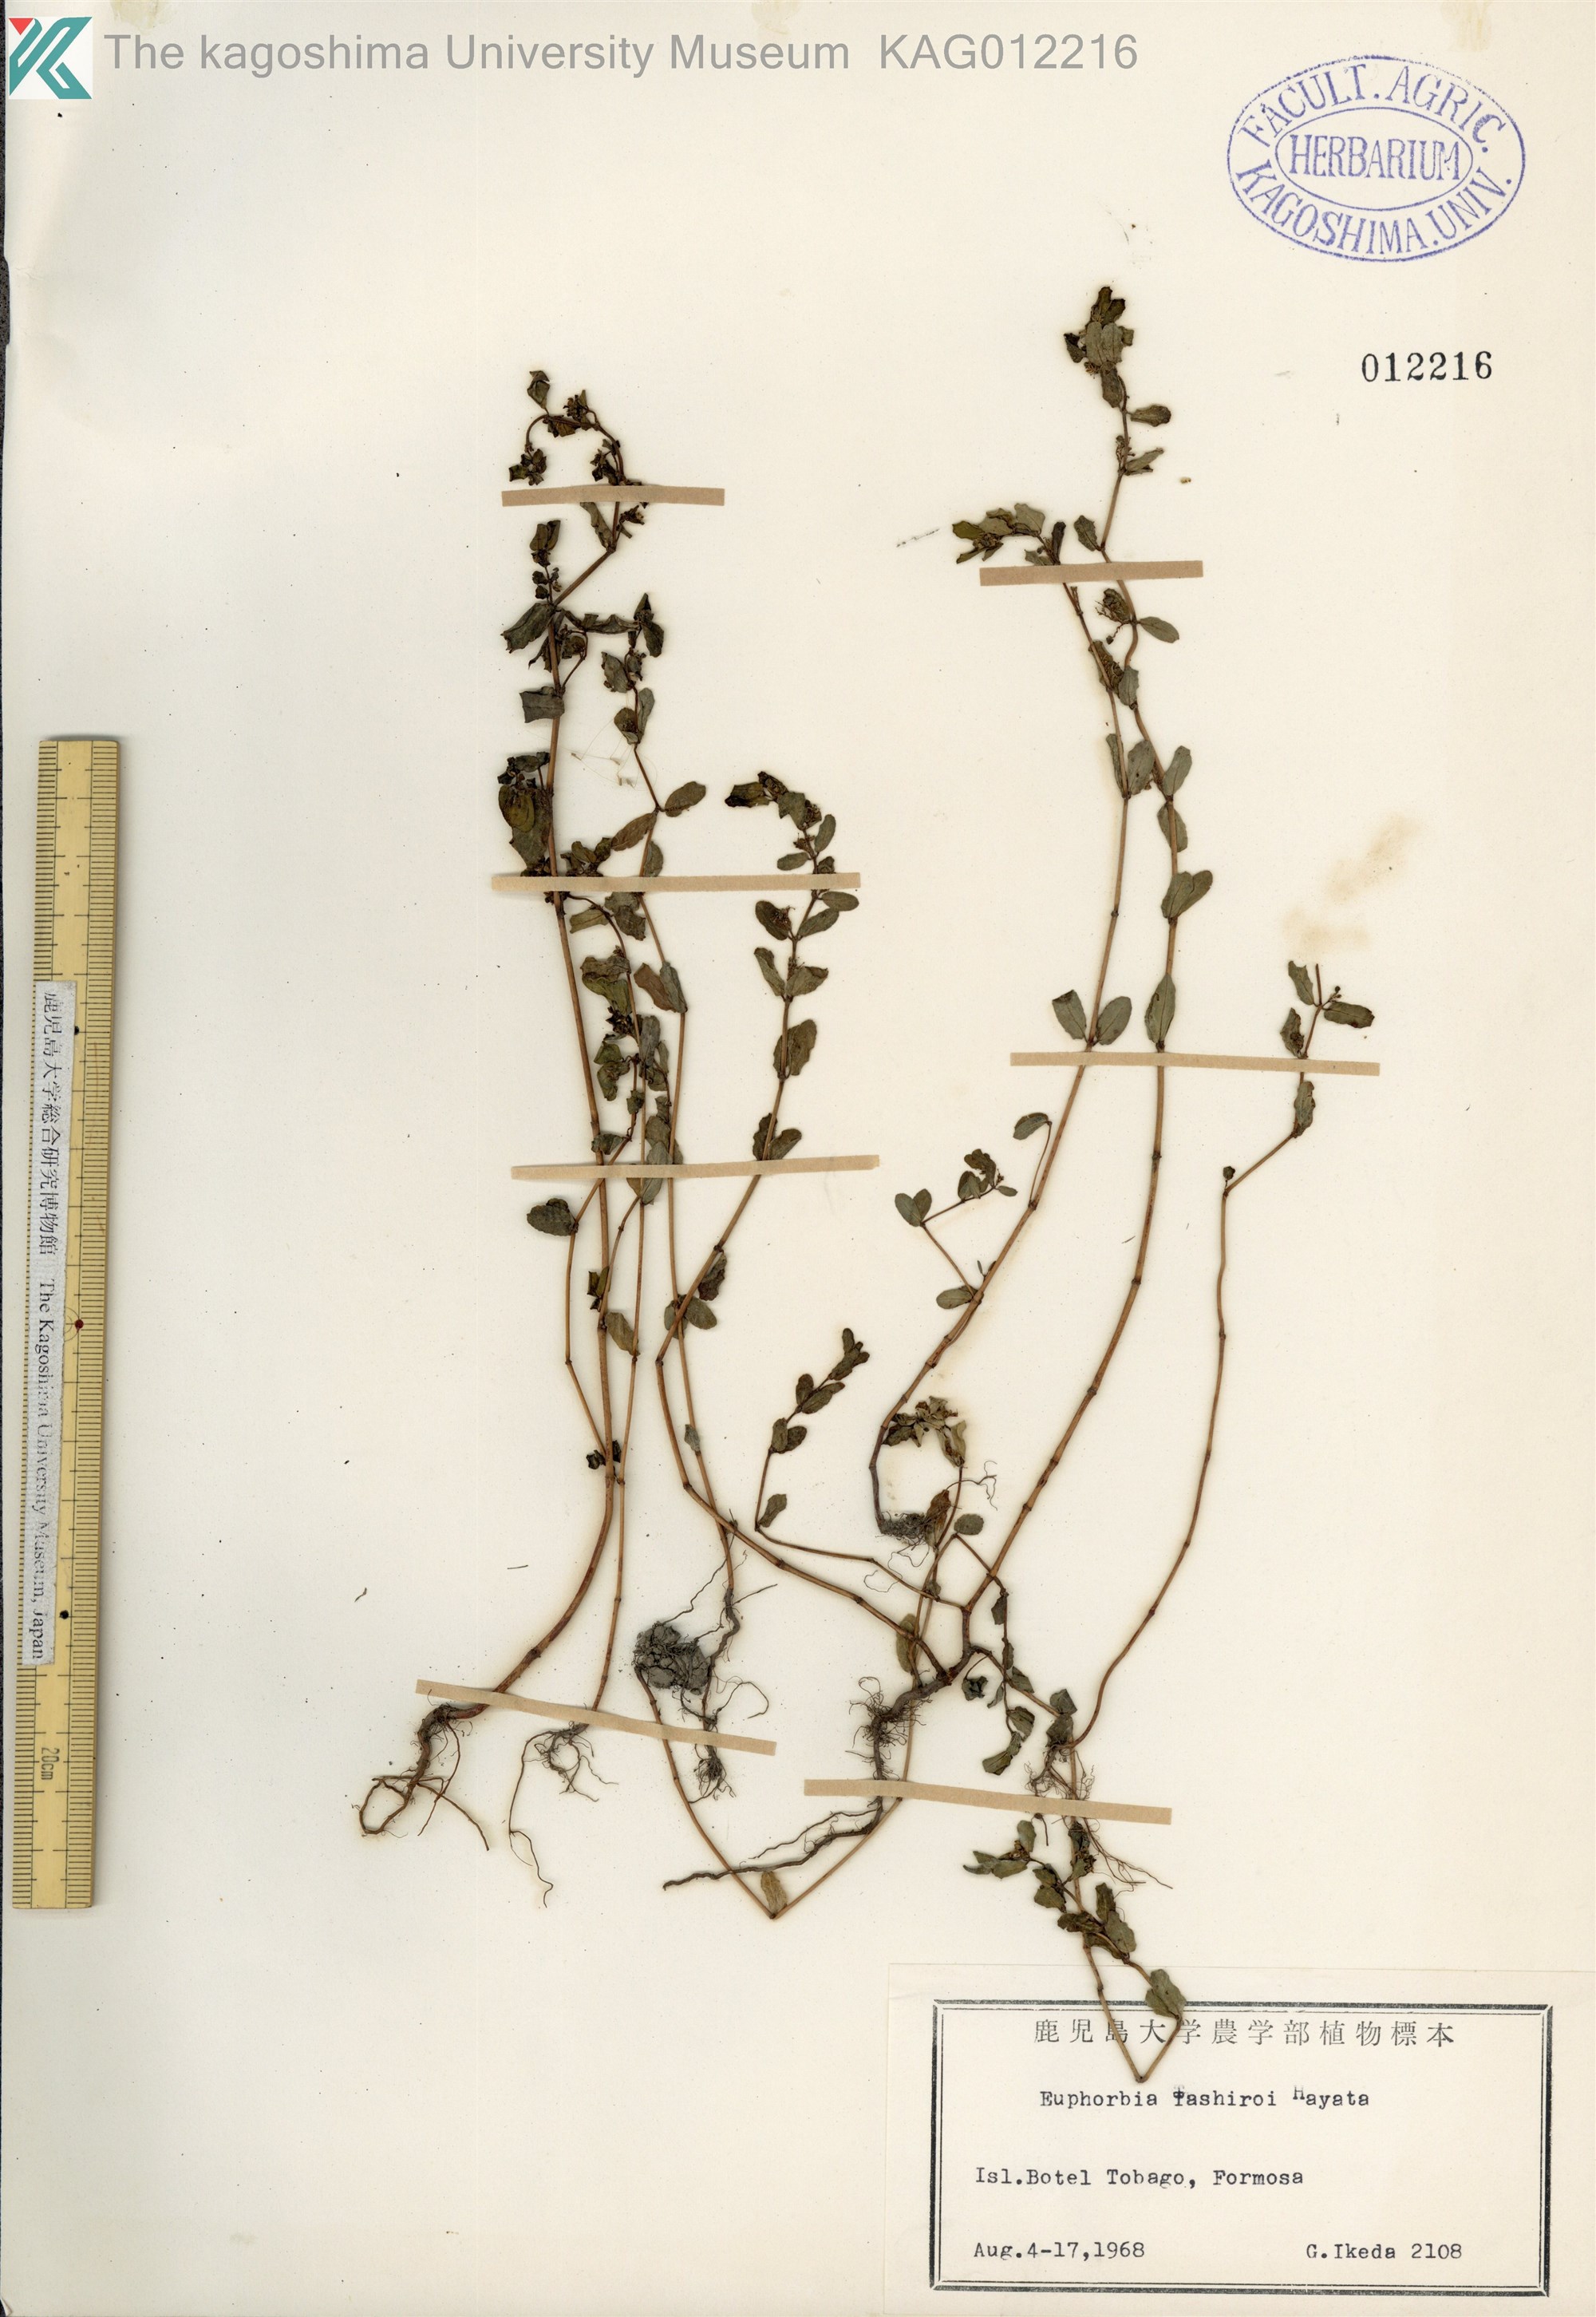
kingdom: Plantae
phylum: Tracheophyta
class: Magnoliopsida
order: Malpighiales
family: Euphorbiaceae
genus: Euphorbia
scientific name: Euphorbia humifusa
